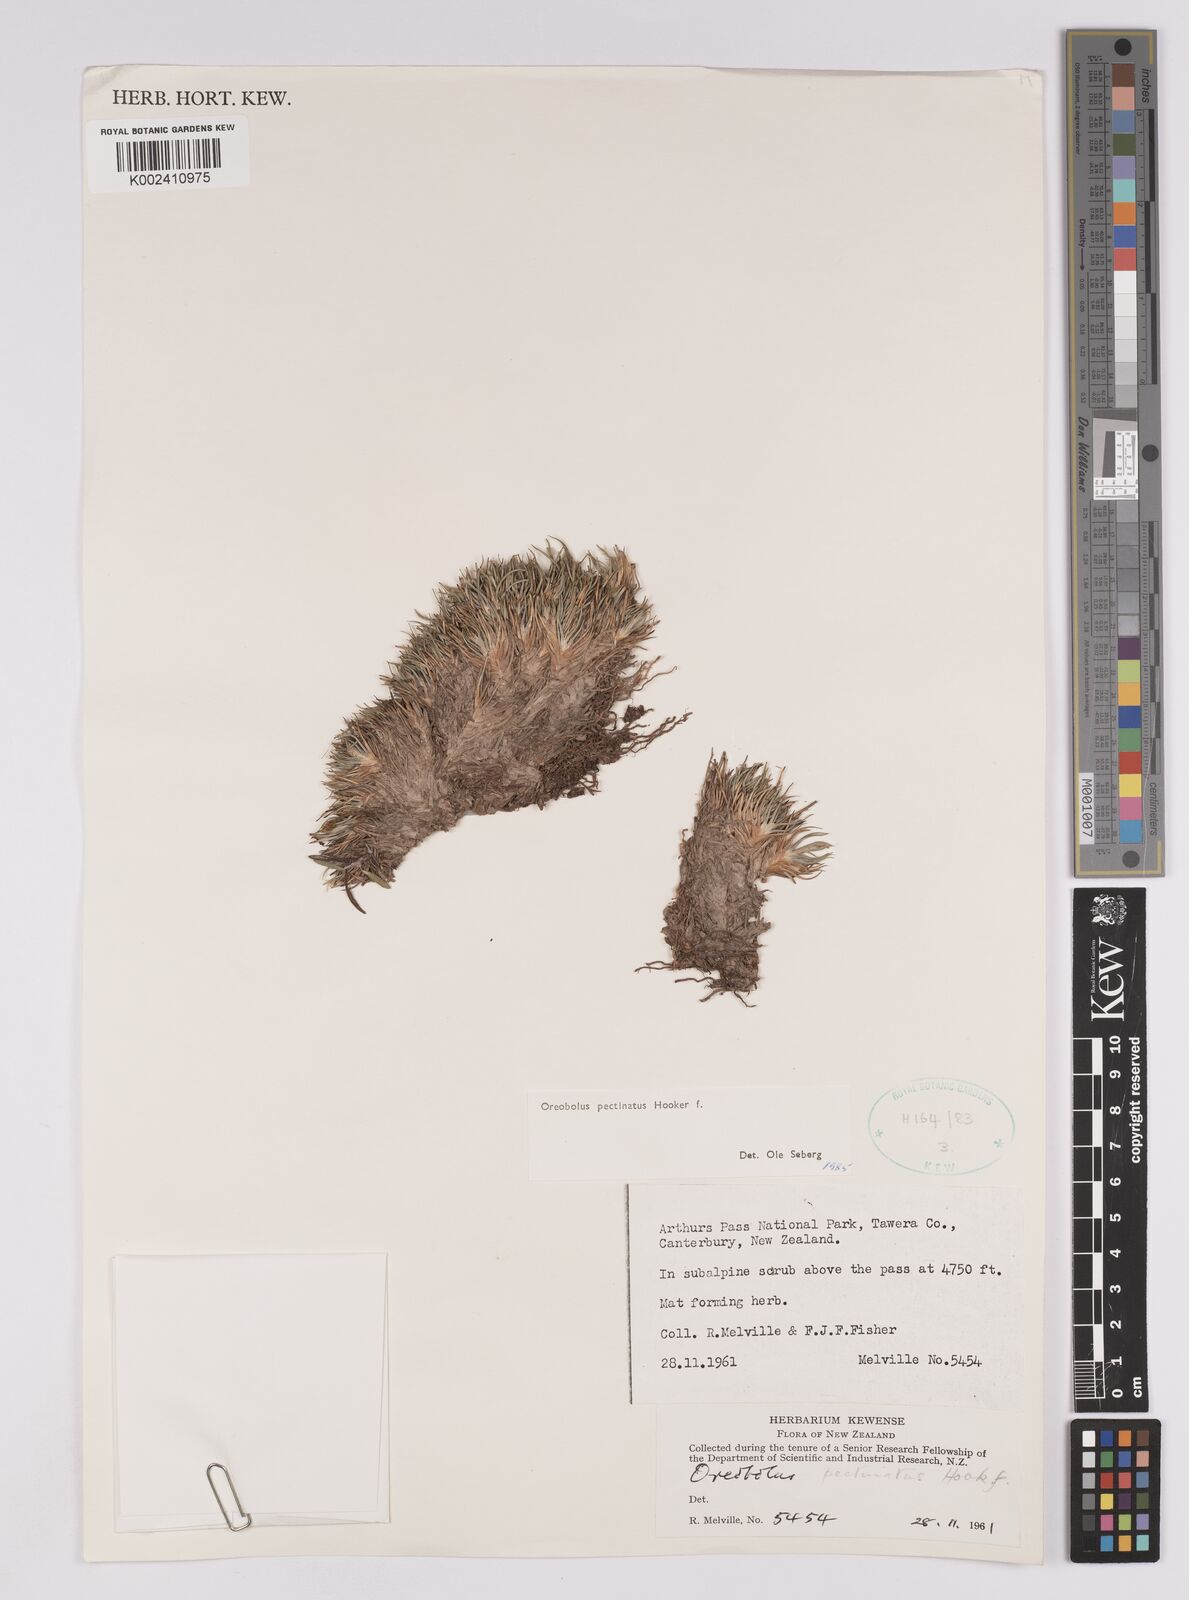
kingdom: Plantae
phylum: Tracheophyta
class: Liliopsida
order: Poales
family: Cyperaceae
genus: Oreobolus
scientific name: Oreobolus pectinatus
